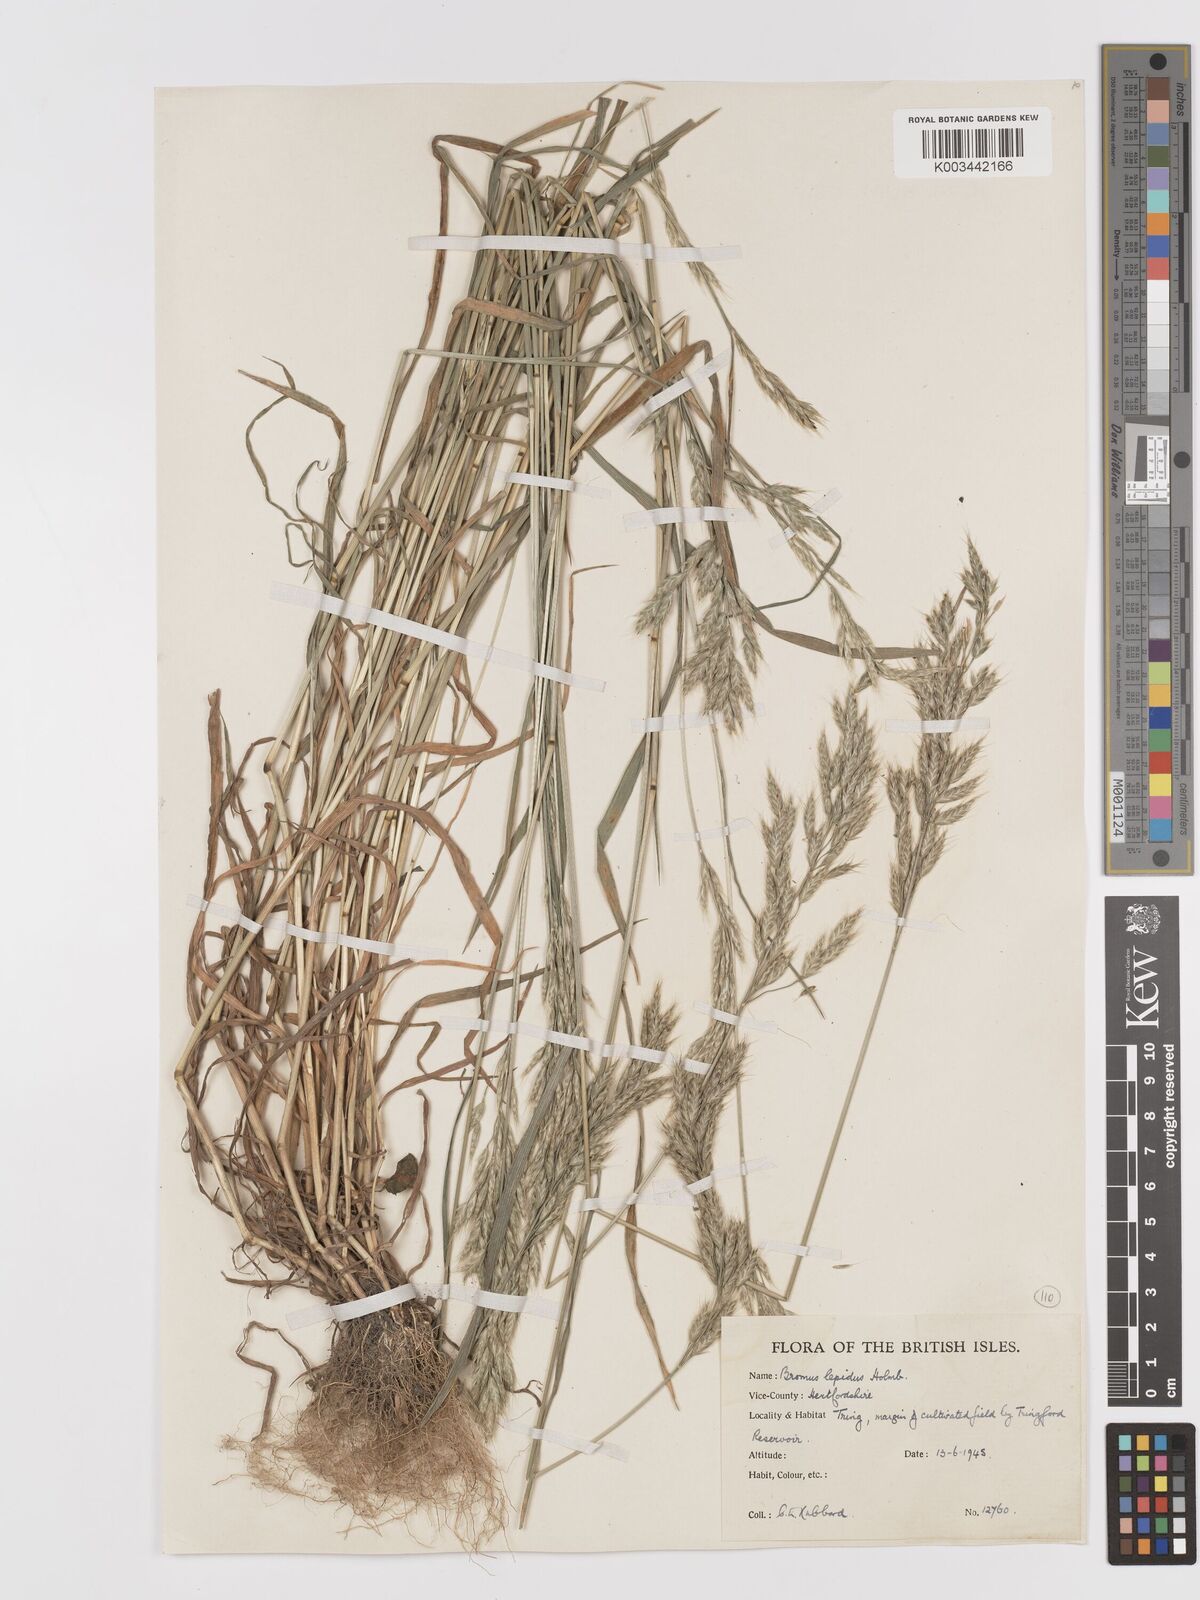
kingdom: Plantae
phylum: Tracheophyta
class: Liliopsida
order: Poales
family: Poaceae
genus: Bromus
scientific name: Bromus lepidus
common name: Slender soft-brome
